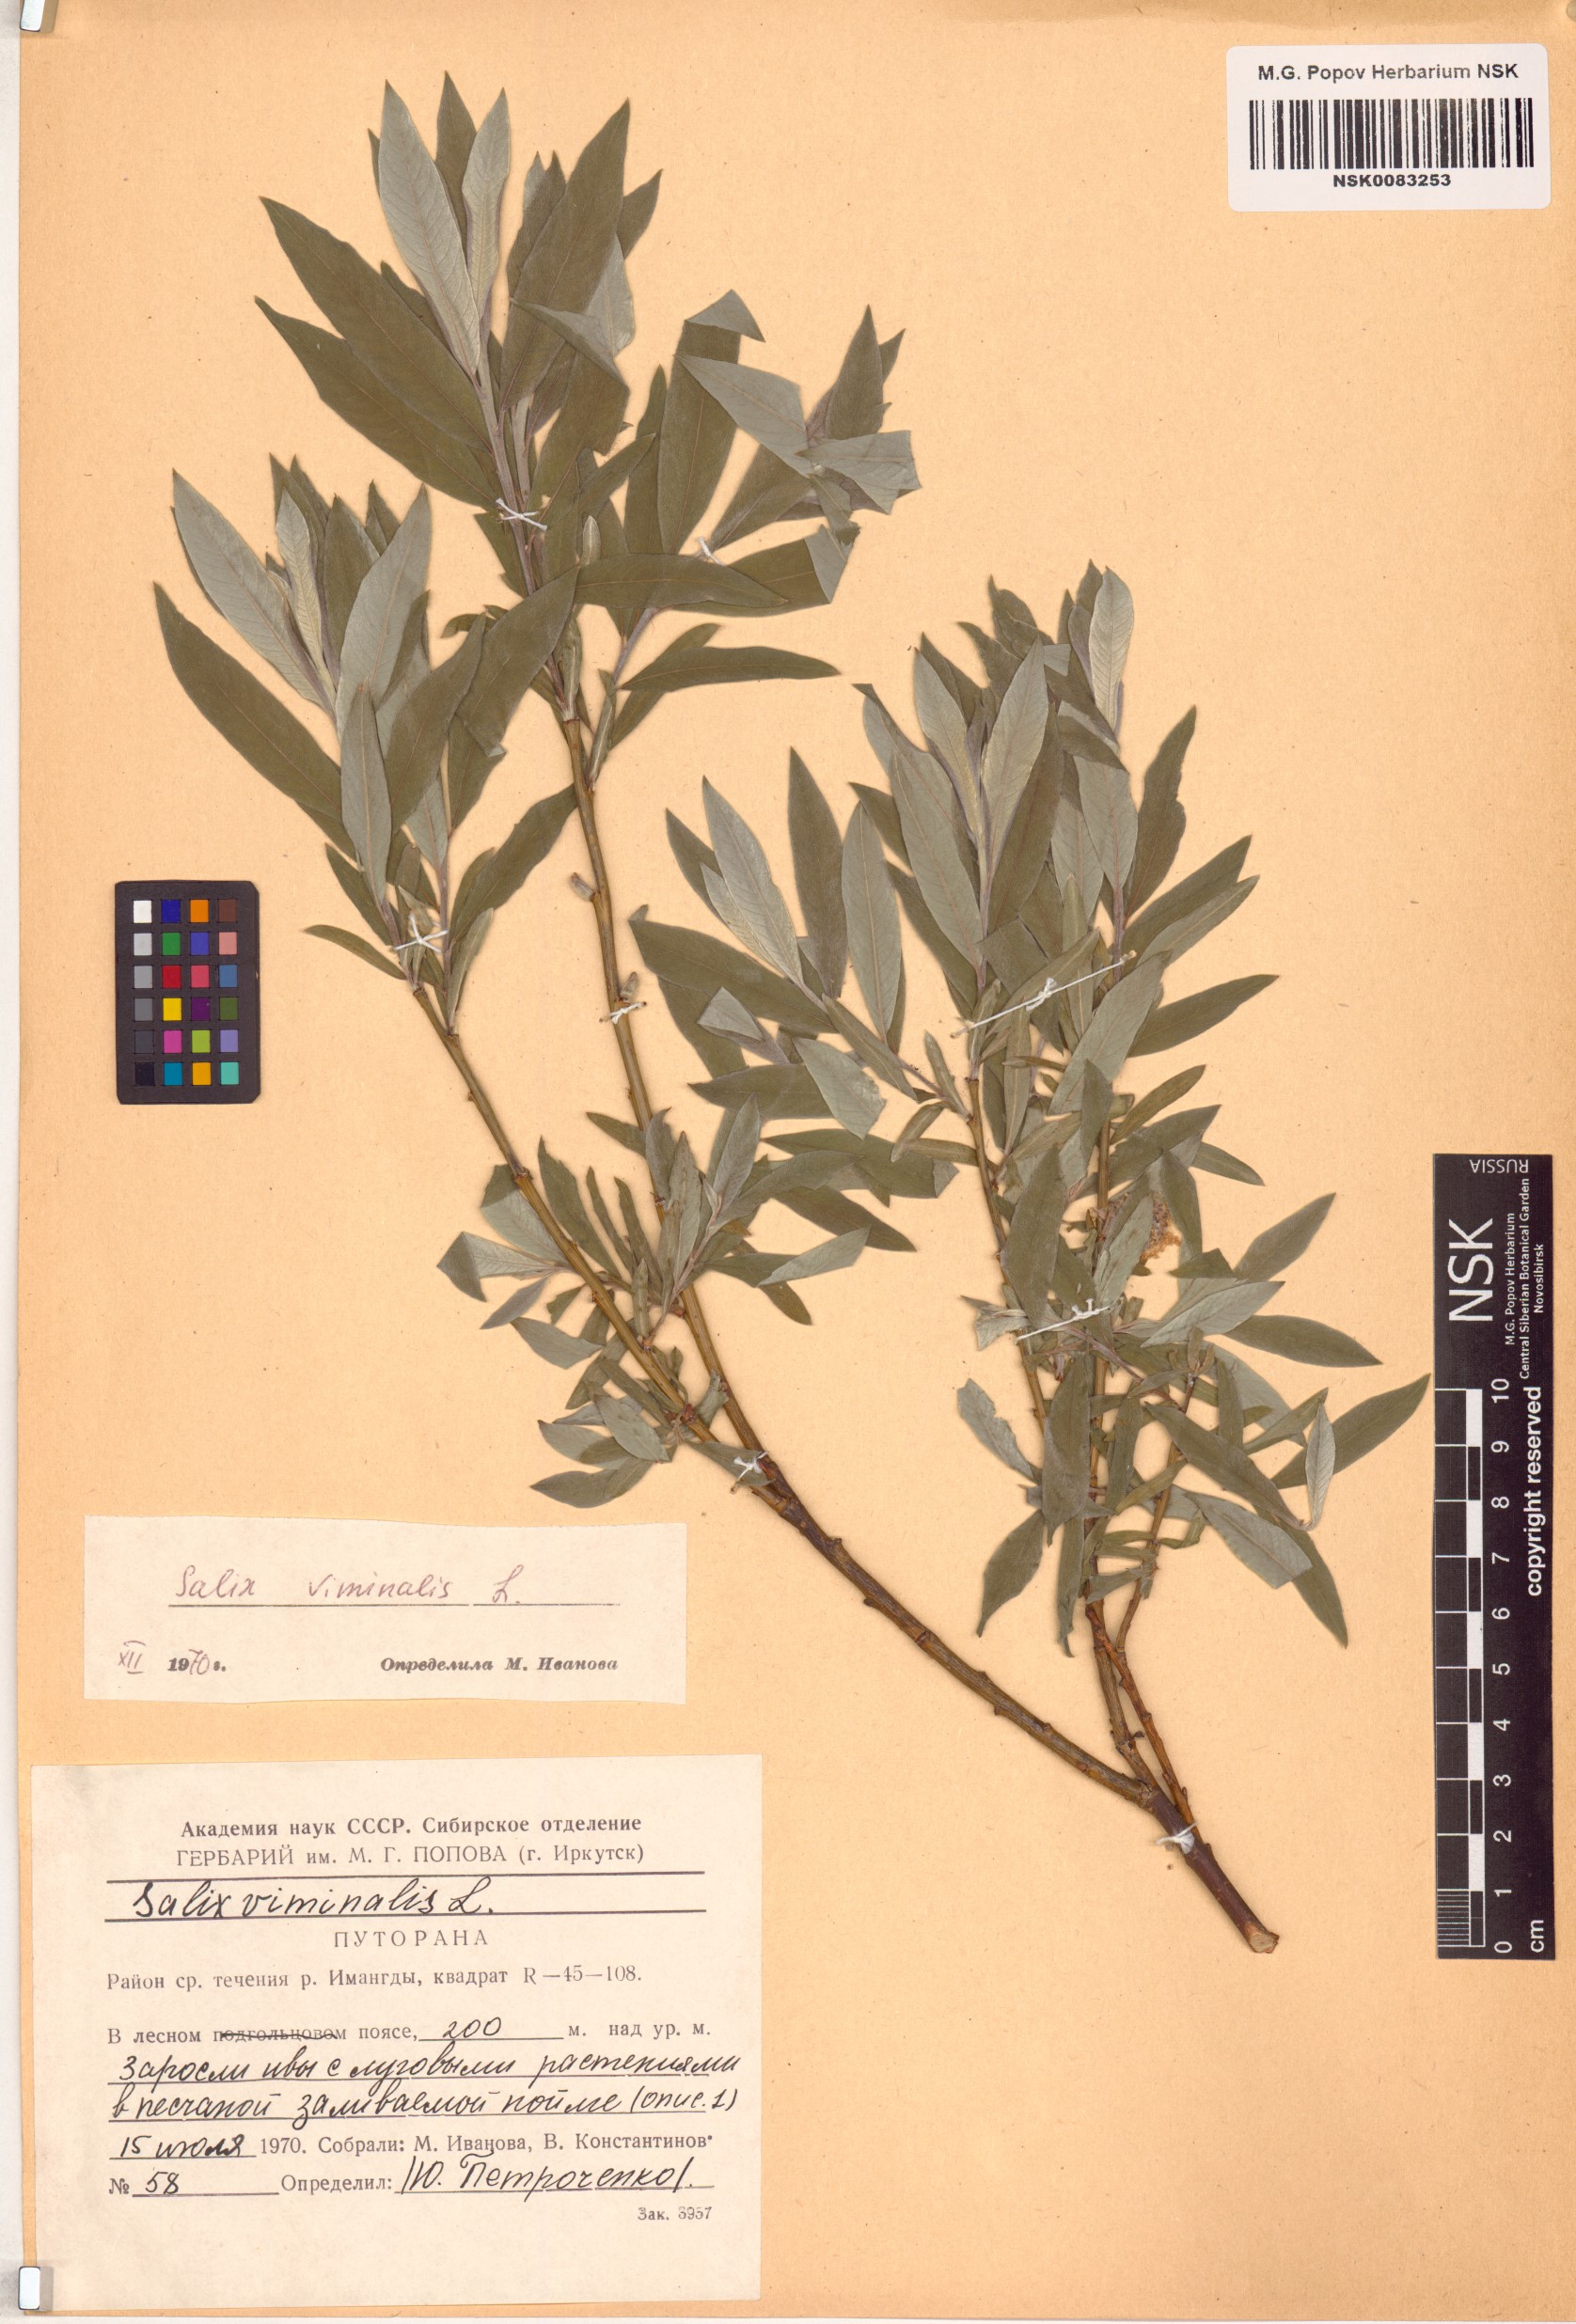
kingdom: Plantae
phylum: Tracheophyta
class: Magnoliopsida
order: Malpighiales
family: Salicaceae
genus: Salix
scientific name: Salix viminalis
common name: Osier
